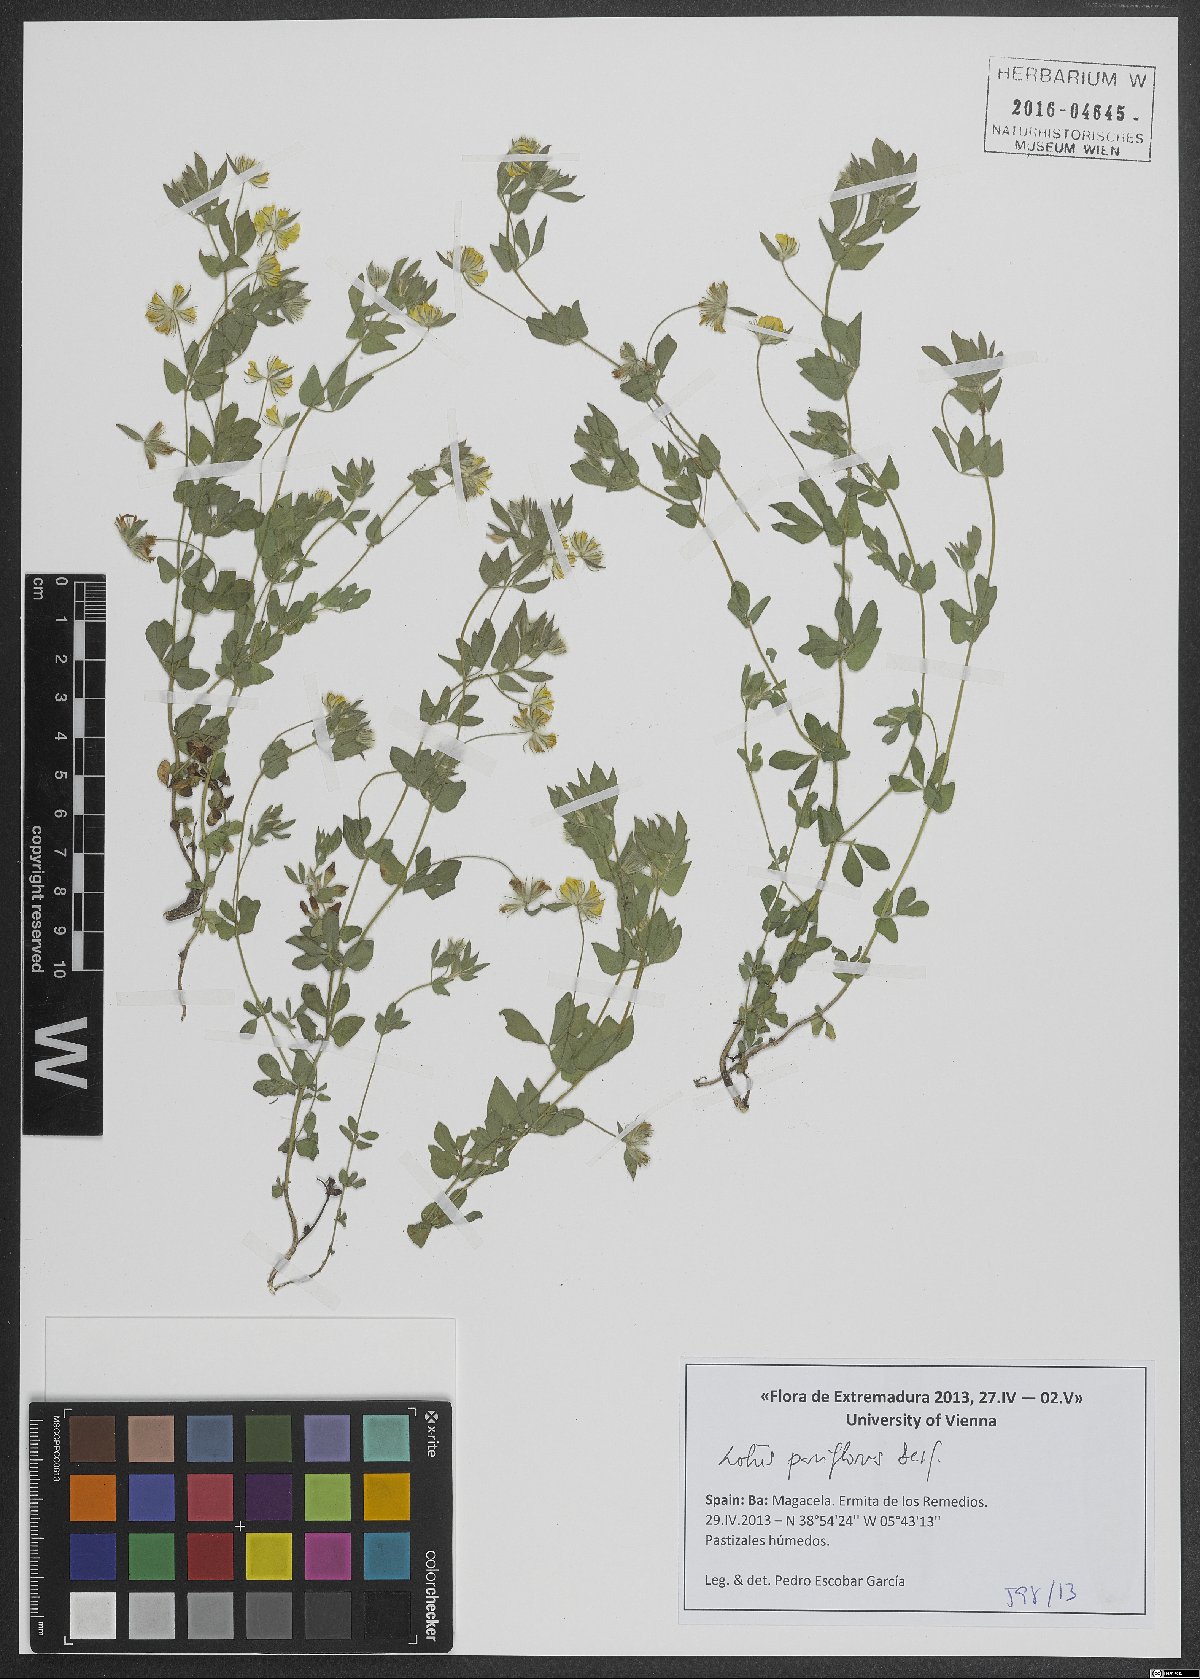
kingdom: Plantae
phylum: Tracheophyta
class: Magnoliopsida
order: Fabales
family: Fabaceae
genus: Lotus
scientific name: Lotus parviflorus
